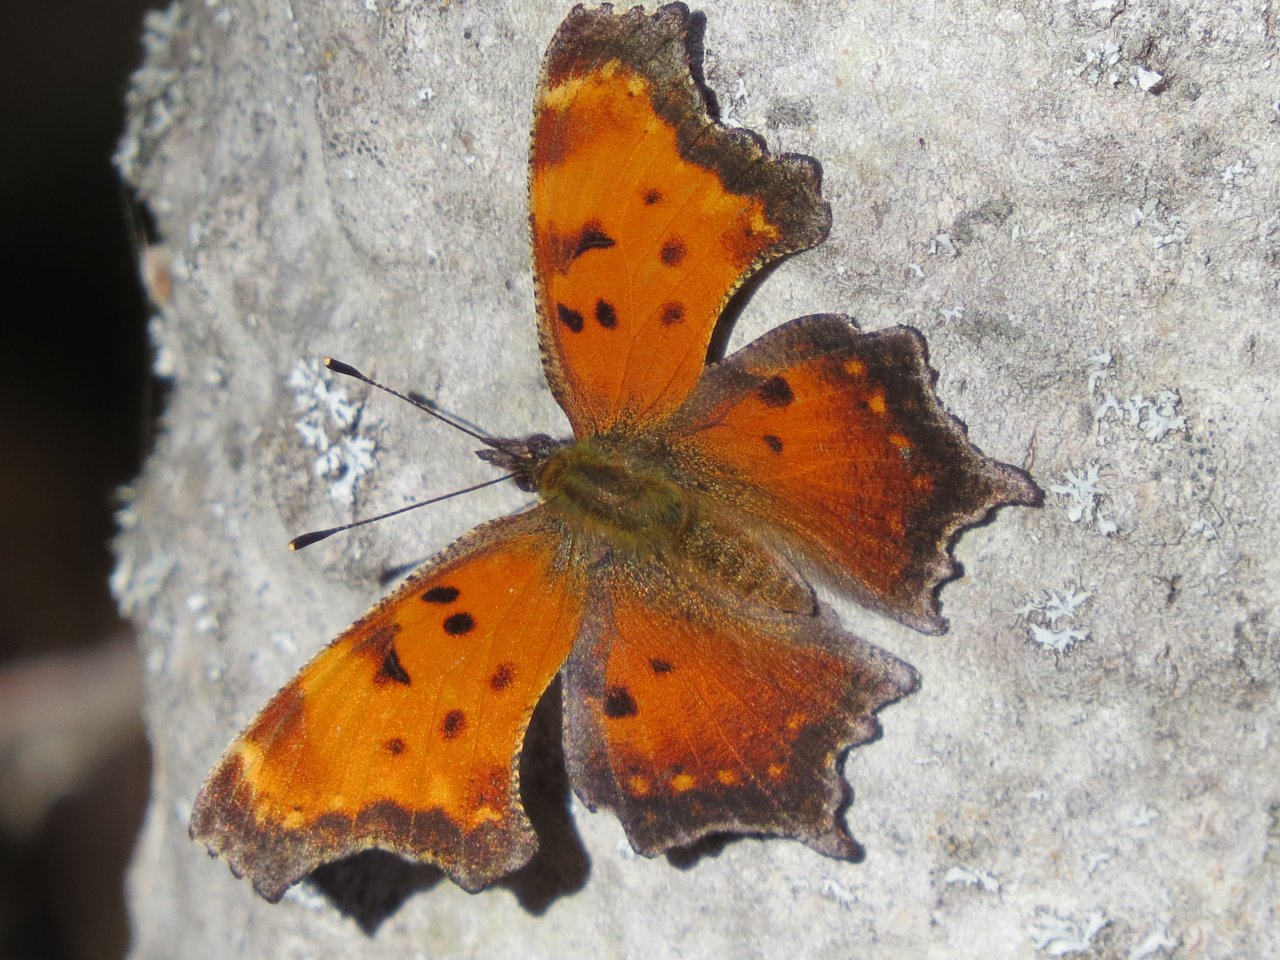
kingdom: Animalia
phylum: Arthropoda
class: Insecta
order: Lepidoptera
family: Nymphalidae
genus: Polygonia
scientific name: Polygonia progne
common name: Gray Comma
